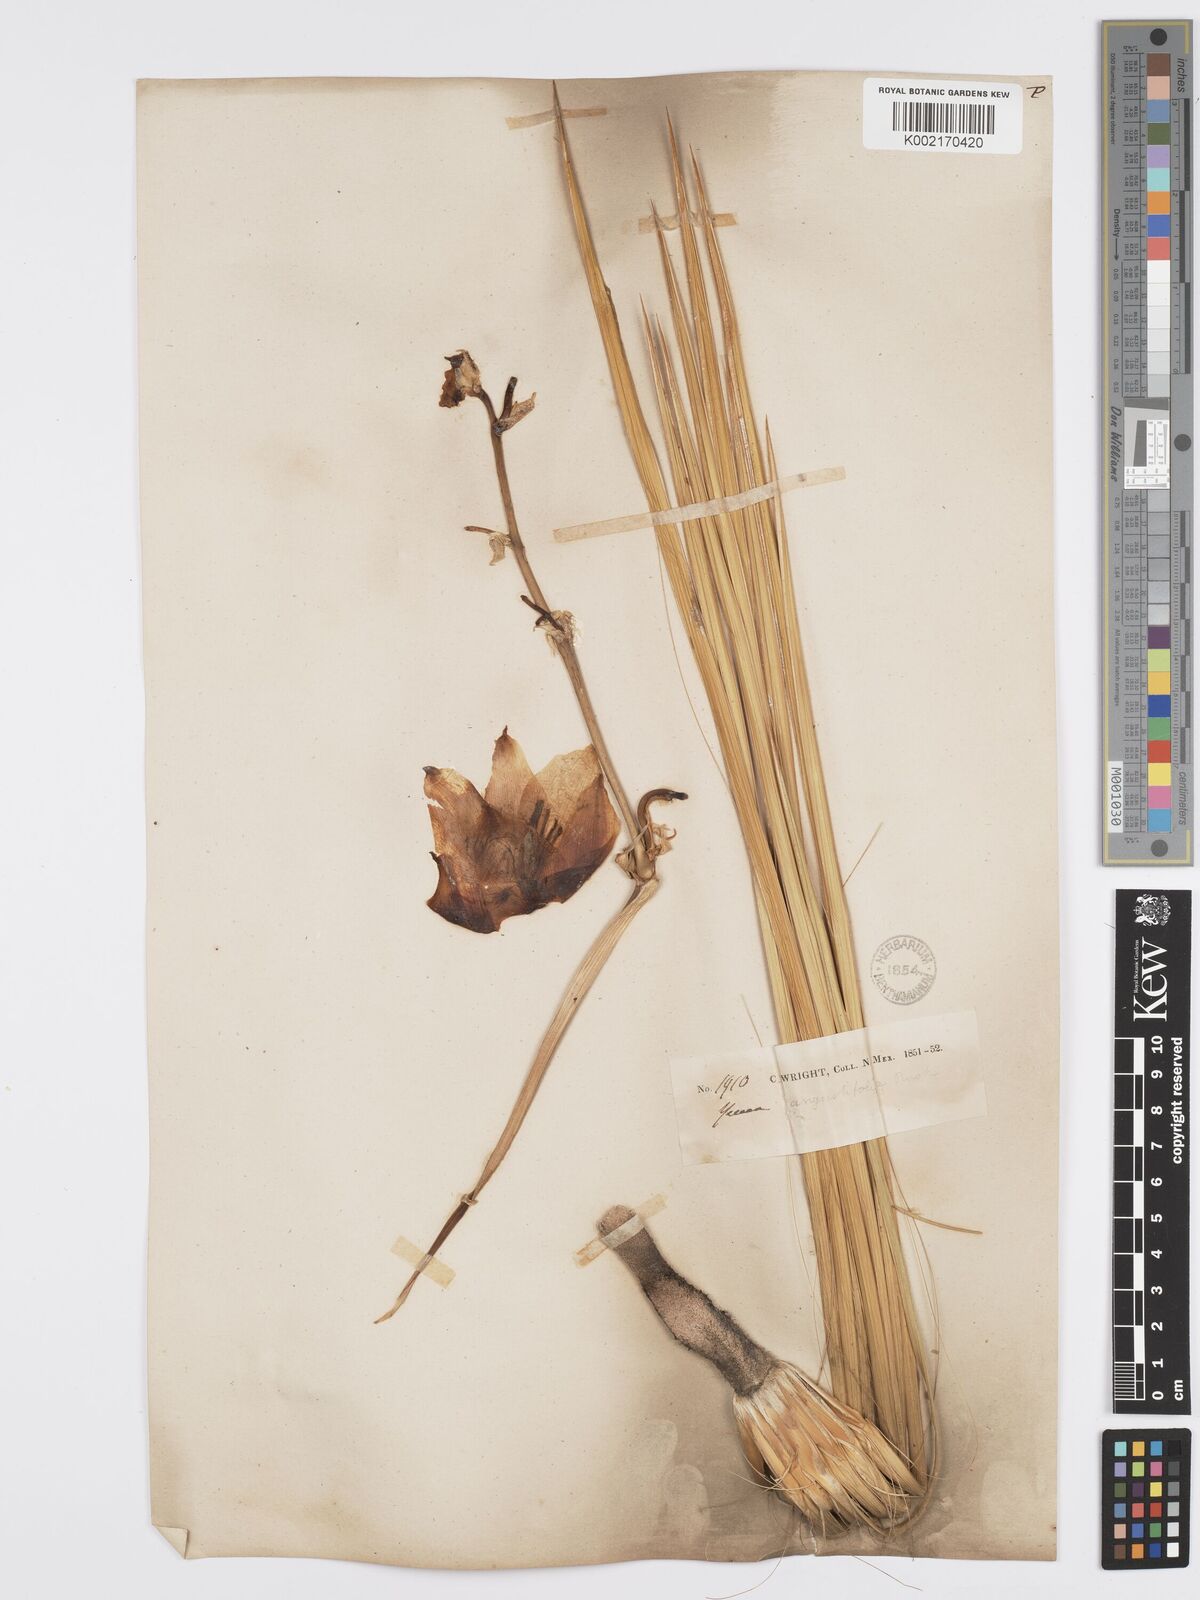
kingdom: Plantae
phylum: Tracheophyta
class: Liliopsida
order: Asparagales
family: Asparagaceae
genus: Yucca
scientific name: Yucca glauca
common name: Great plains yucca
